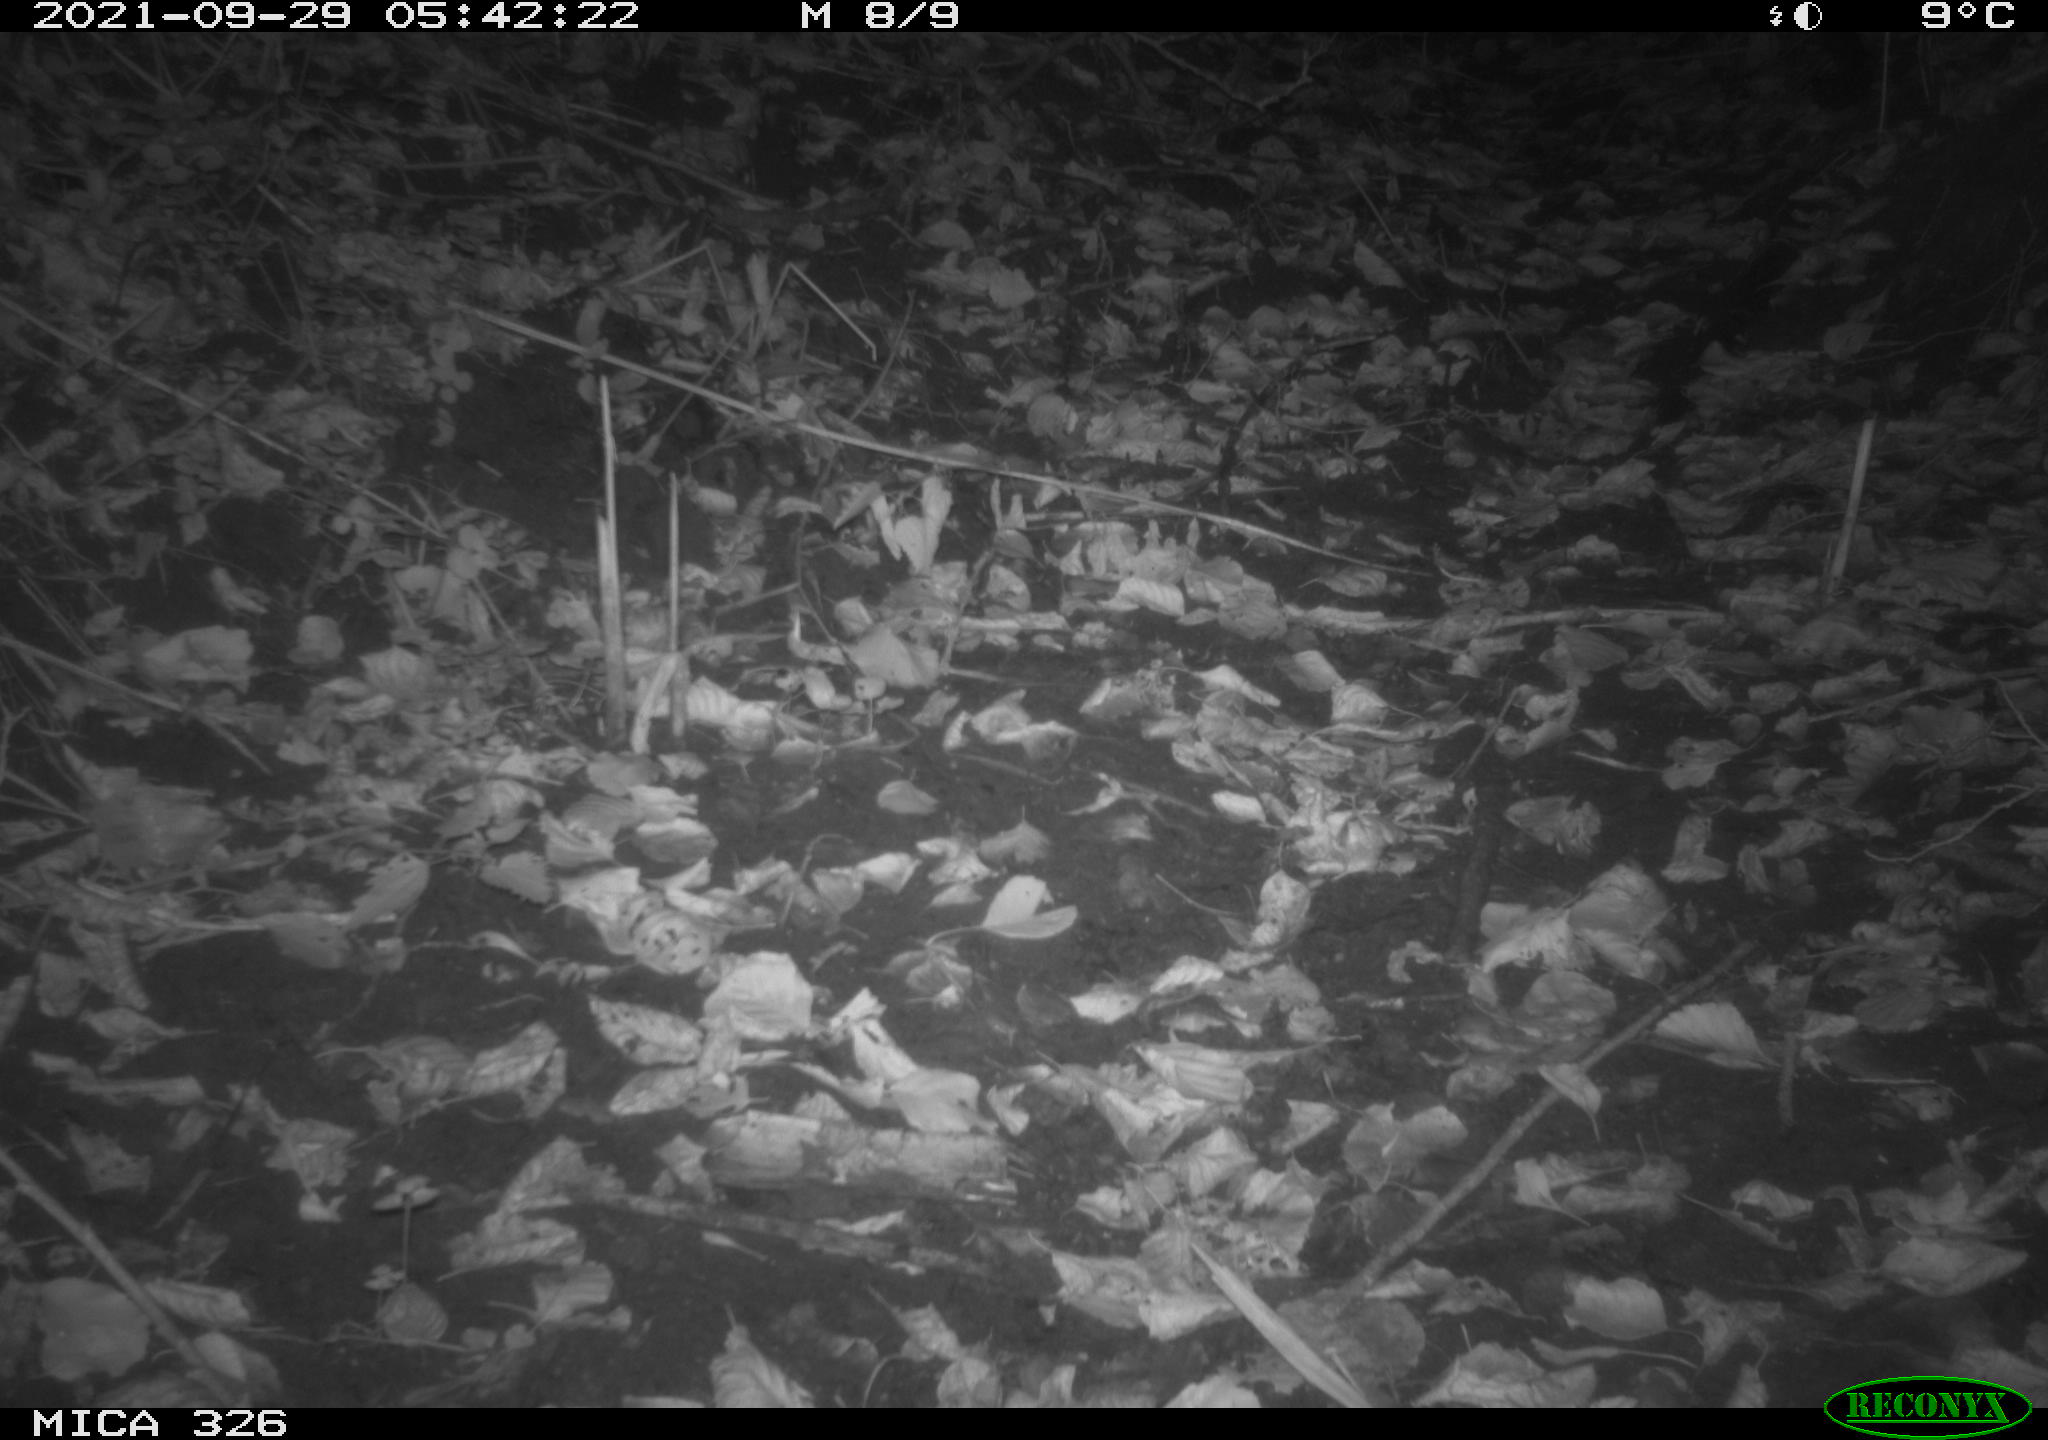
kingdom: Animalia
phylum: Chordata
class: Mammalia
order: Rodentia
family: Muridae
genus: Rattus
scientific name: Rattus norvegicus
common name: Brown rat
